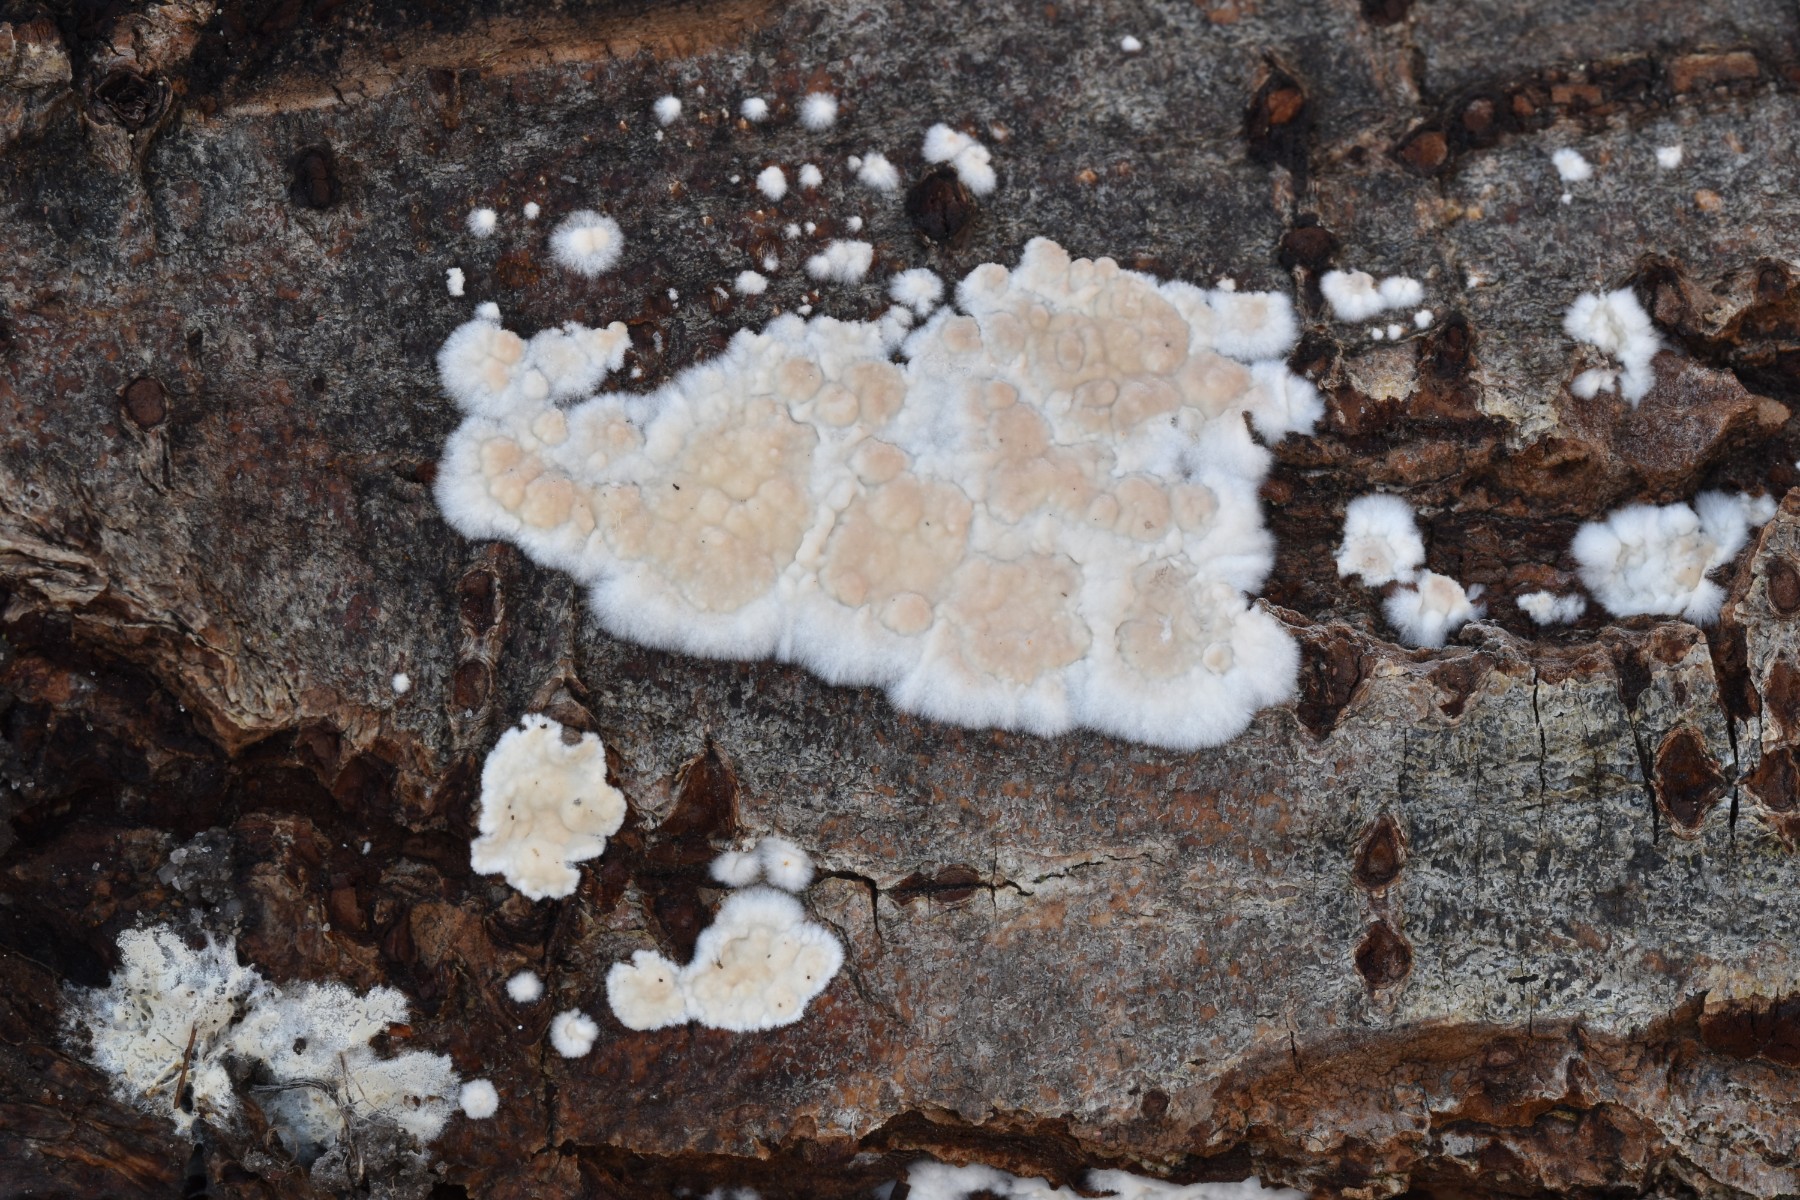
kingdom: Fungi
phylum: Basidiomycota
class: Agaricomycetes
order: Agaricales
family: Physalacriaceae
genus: Cylindrobasidium
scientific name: Cylindrobasidium evolvens
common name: sprækkehinde
